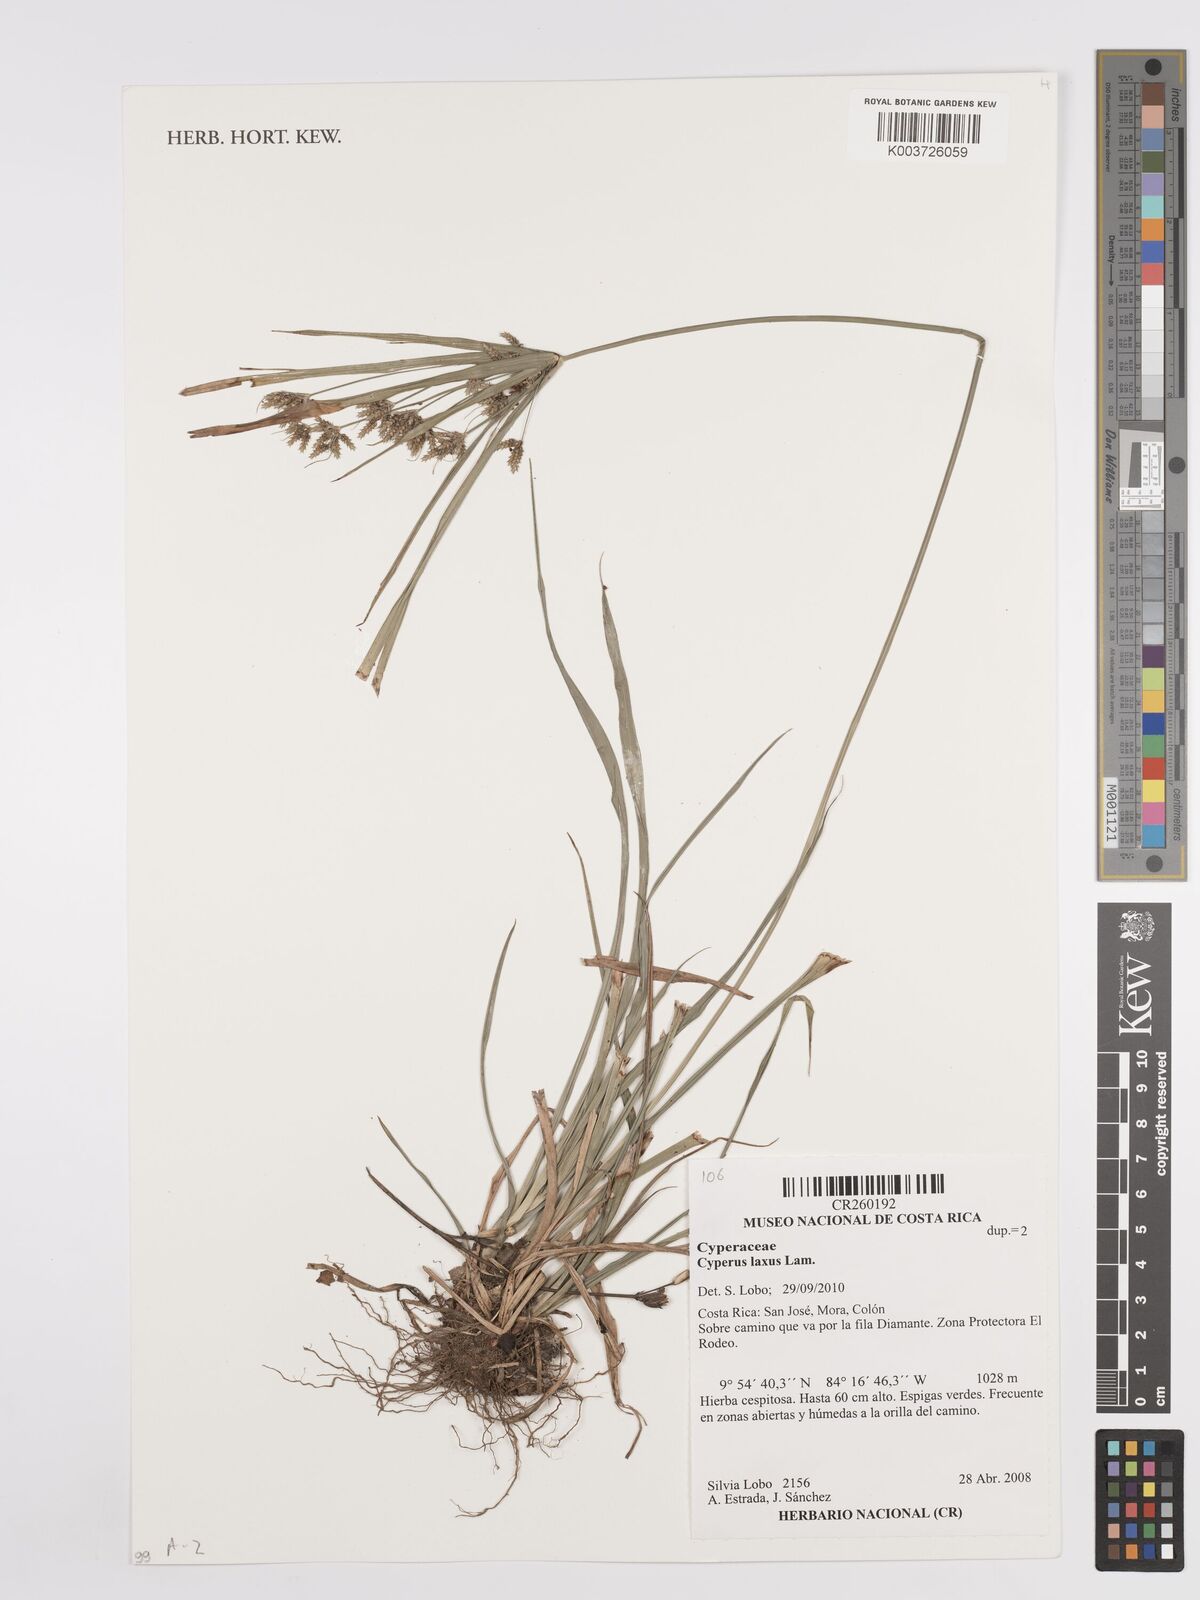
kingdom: Plantae
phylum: Tracheophyta
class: Liliopsida
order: Poales
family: Cyperaceae
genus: Cyperus
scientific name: Cyperus laxus
